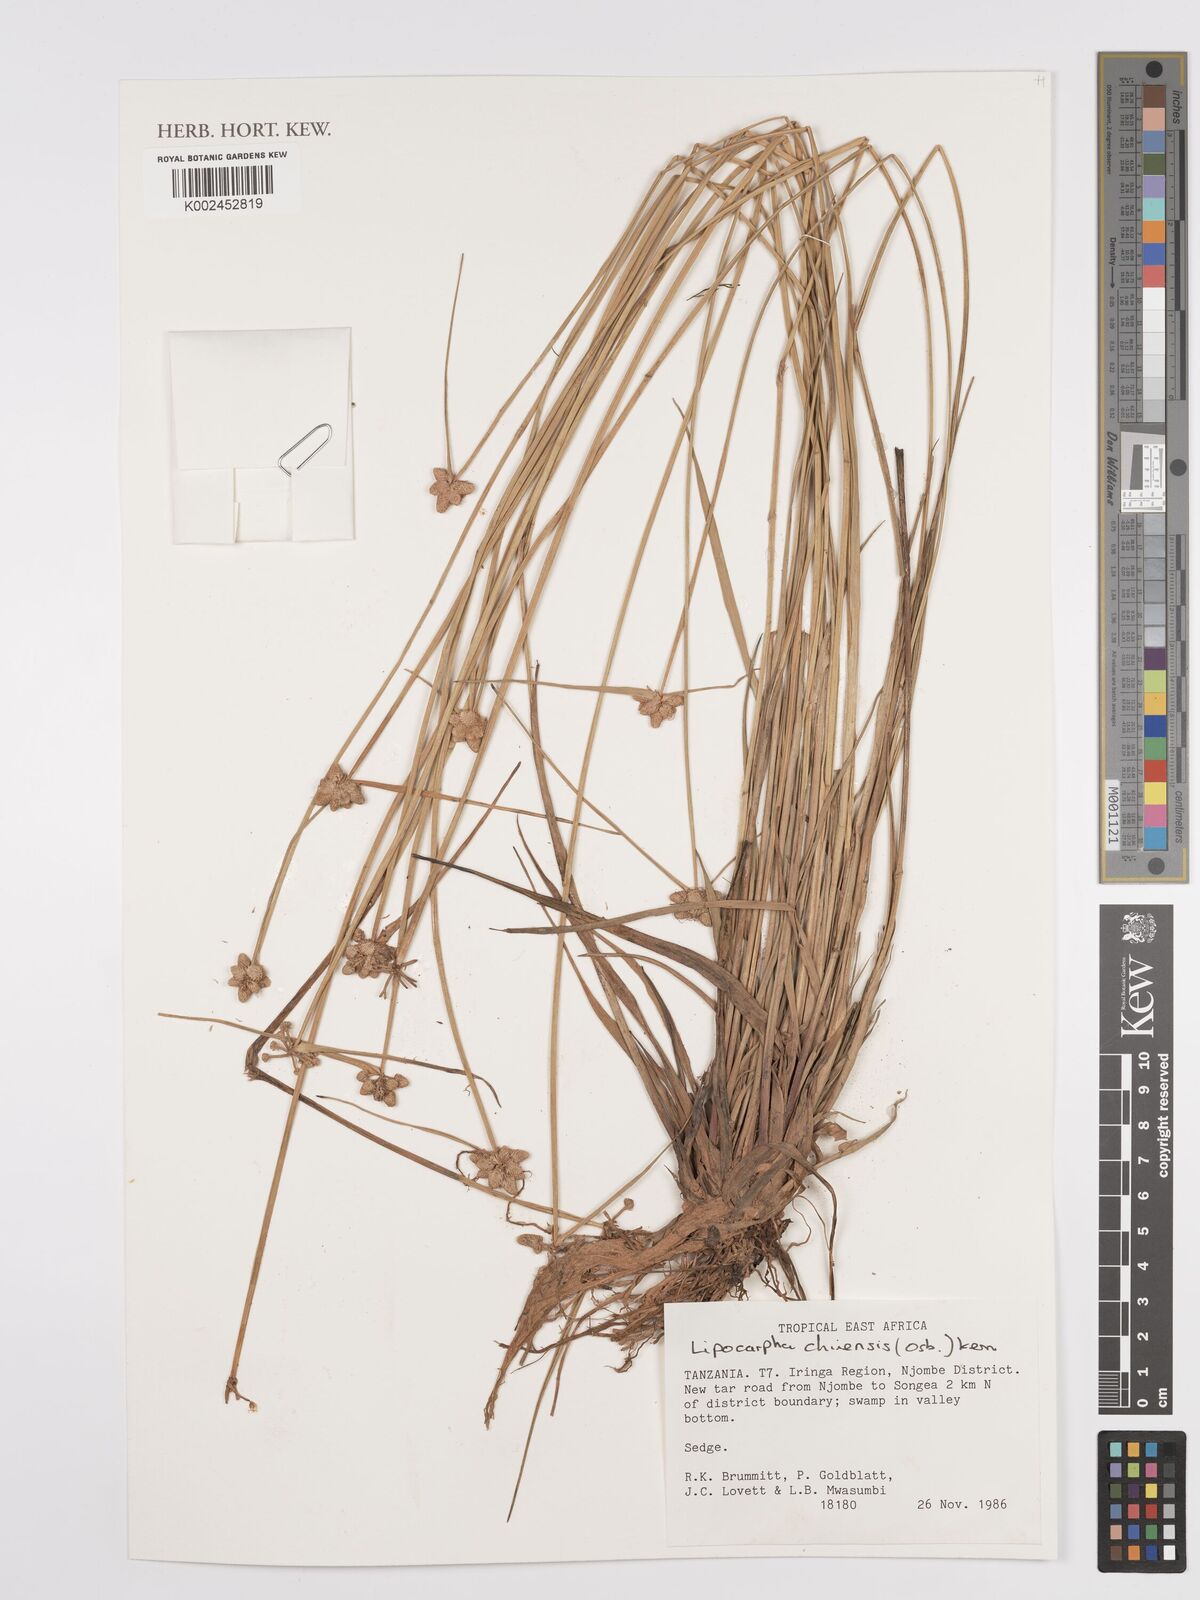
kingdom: Plantae
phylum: Tracheophyta
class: Liliopsida
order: Poales
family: Cyperaceae
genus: Cyperus
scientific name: Cyperus
